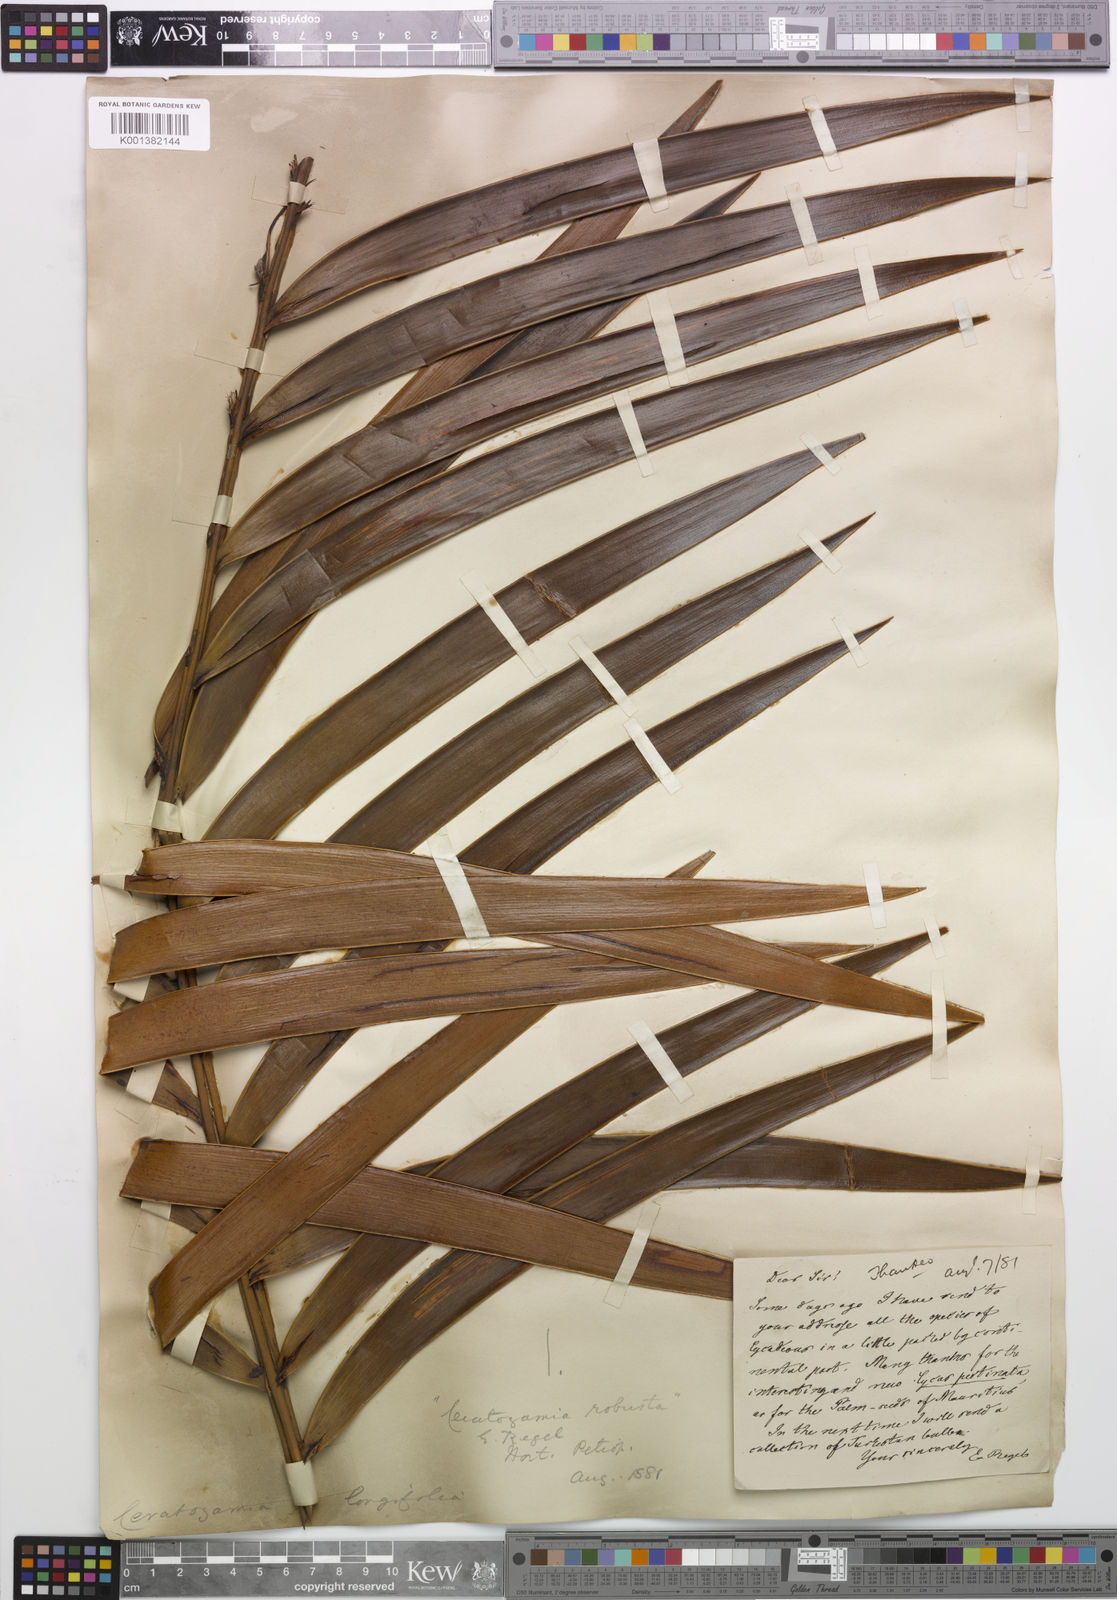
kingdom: Plantae
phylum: Tracheophyta
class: Cycadopsida
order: Cycadales
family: Zamiaceae
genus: Ceratozamia
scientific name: Ceratozamia mexicana
